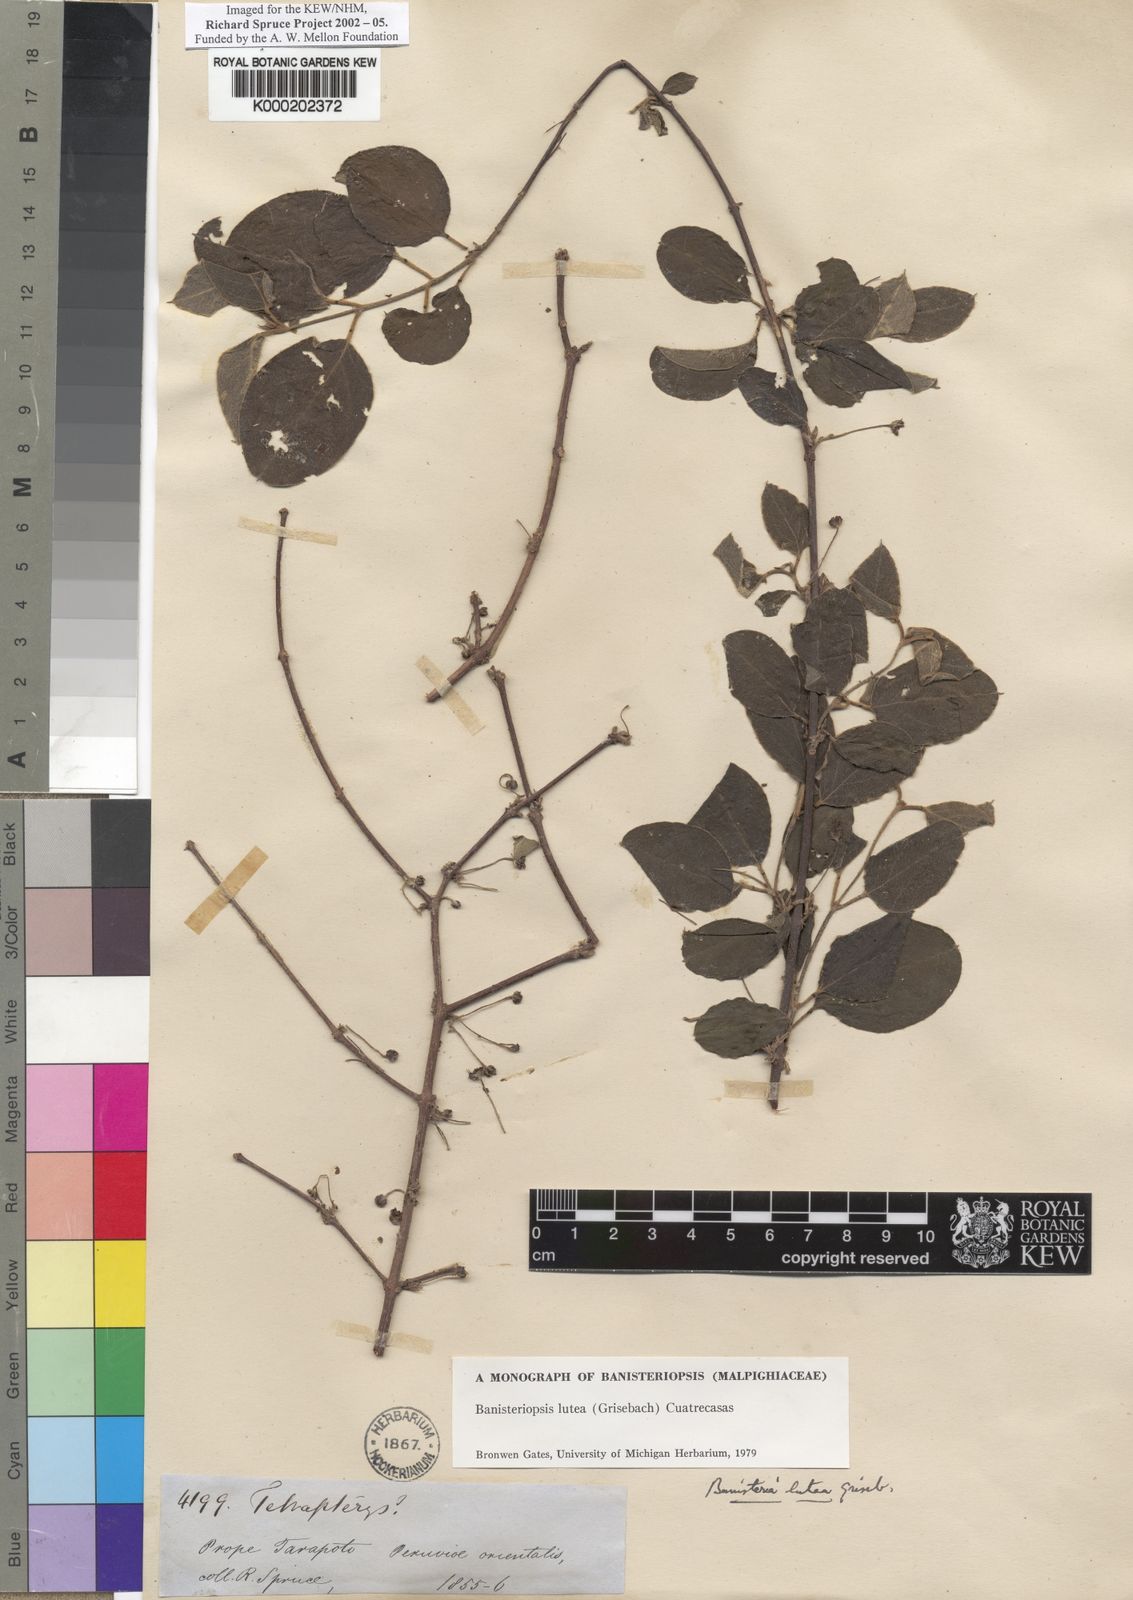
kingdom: Plantae
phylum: Tracheophyta
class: Magnoliopsida
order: Malpighiales
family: Malpighiaceae
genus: Diplopterys
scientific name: Diplopterys lutea
